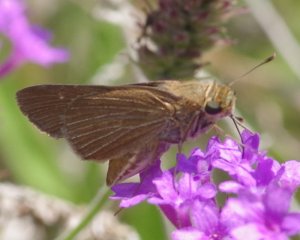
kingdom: Animalia
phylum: Arthropoda
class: Insecta
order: Lepidoptera
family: Hesperiidae
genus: Panoquina
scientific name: Panoquina ocola
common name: Ocola Skipper
